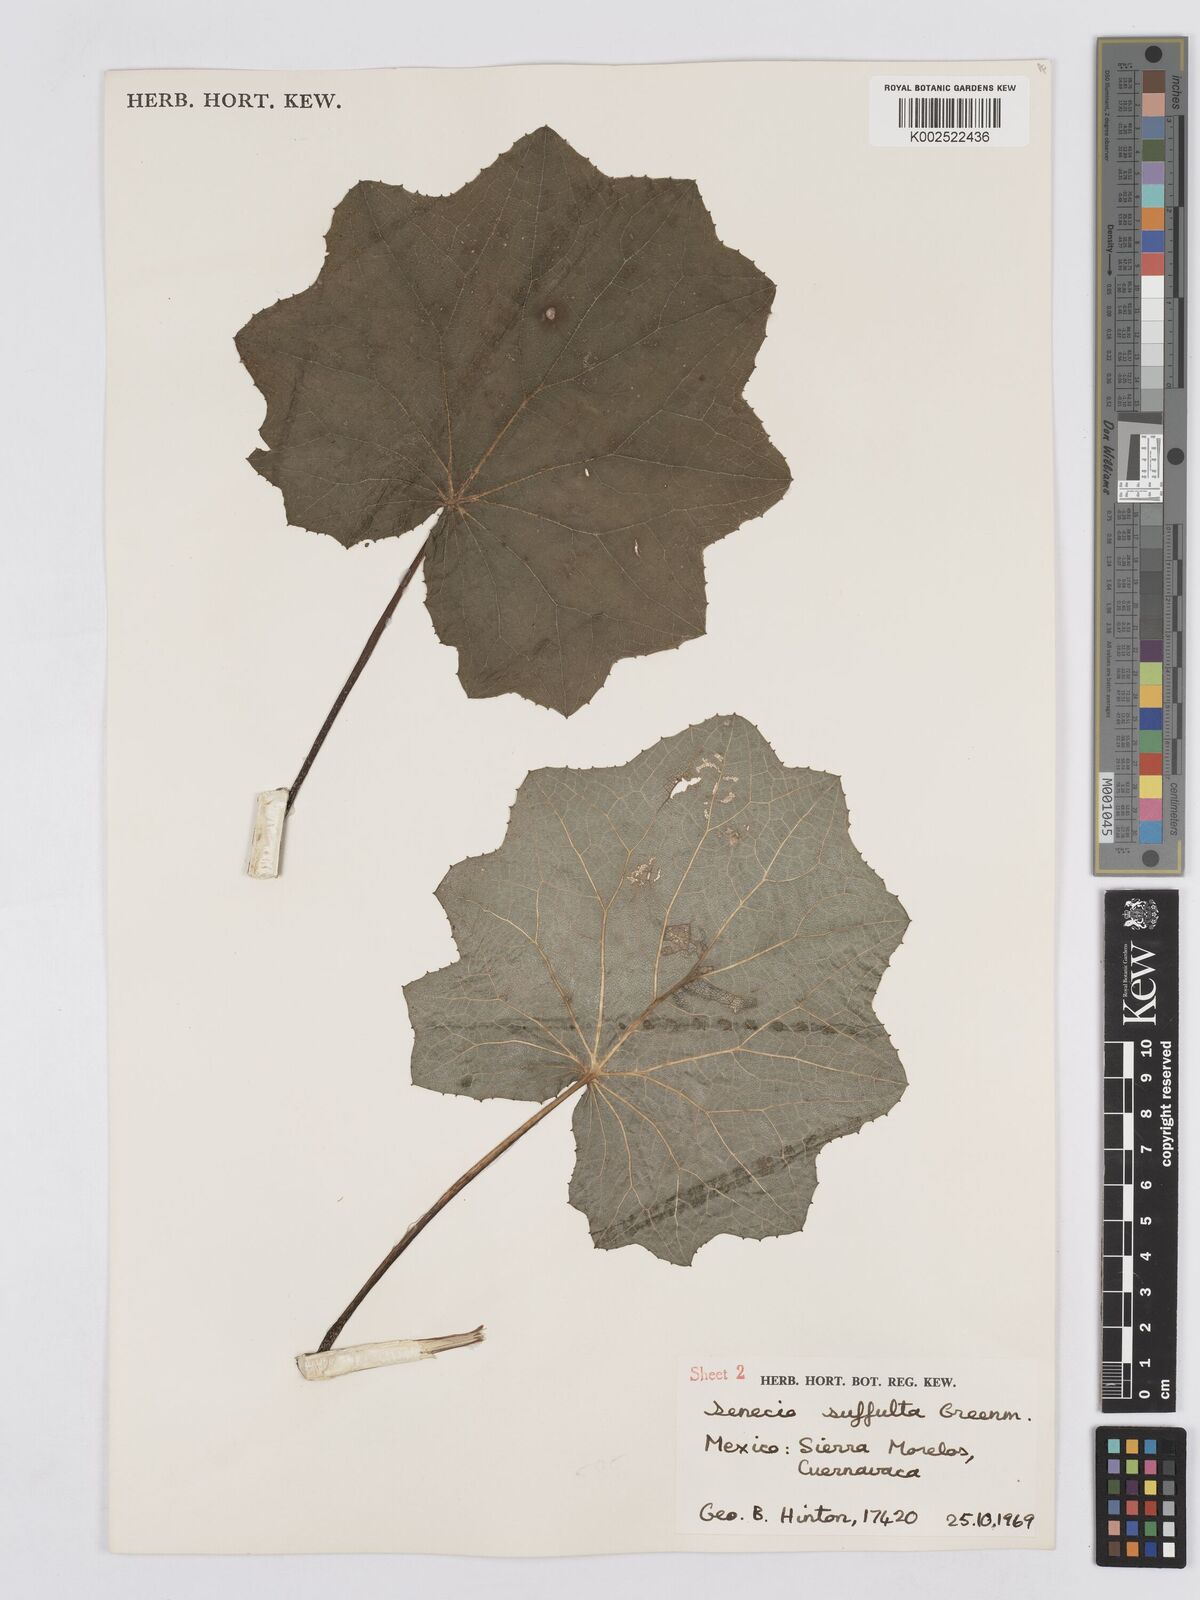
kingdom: Plantae
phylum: Tracheophyta
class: Magnoliopsida
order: Asterales
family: Asteraceae
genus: Roldana
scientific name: Roldana suffulta
